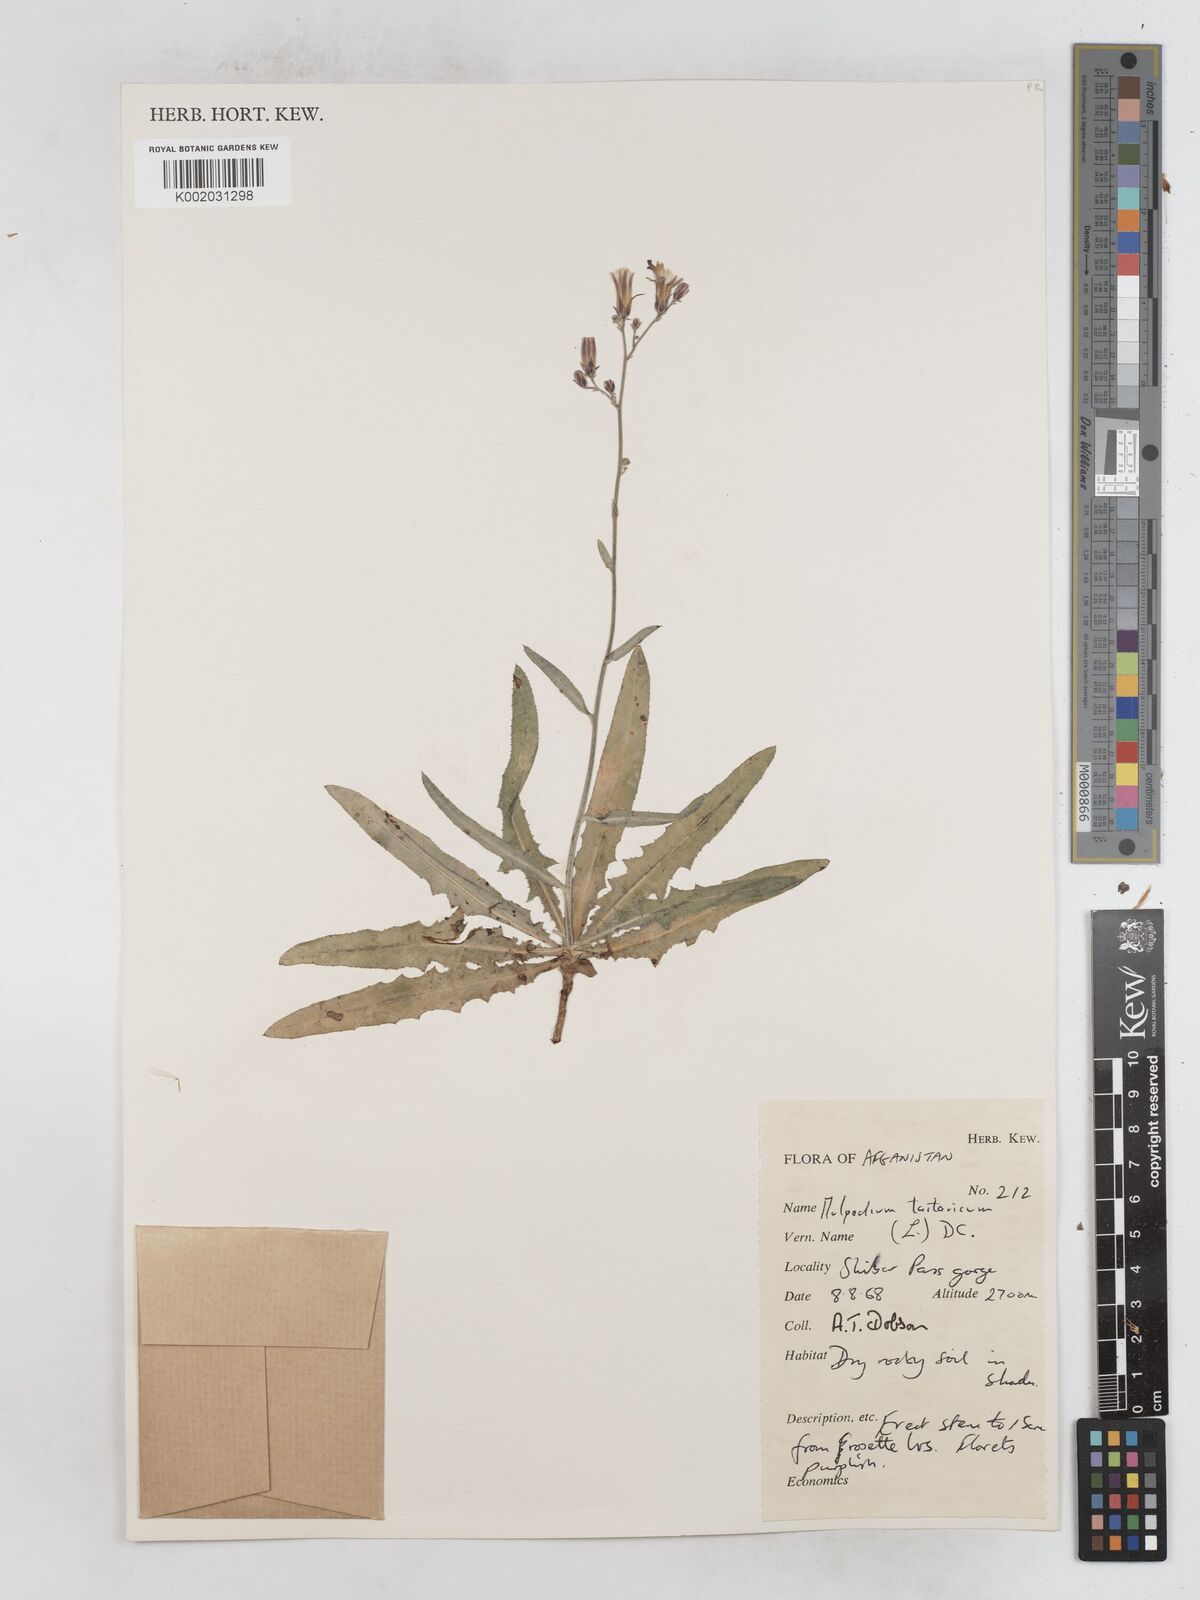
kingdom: Plantae
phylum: Tracheophyta
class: Magnoliopsida
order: Asterales
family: Asteraceae
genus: Lactuca
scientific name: Lactuca tatarica
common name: Blue lettuce
